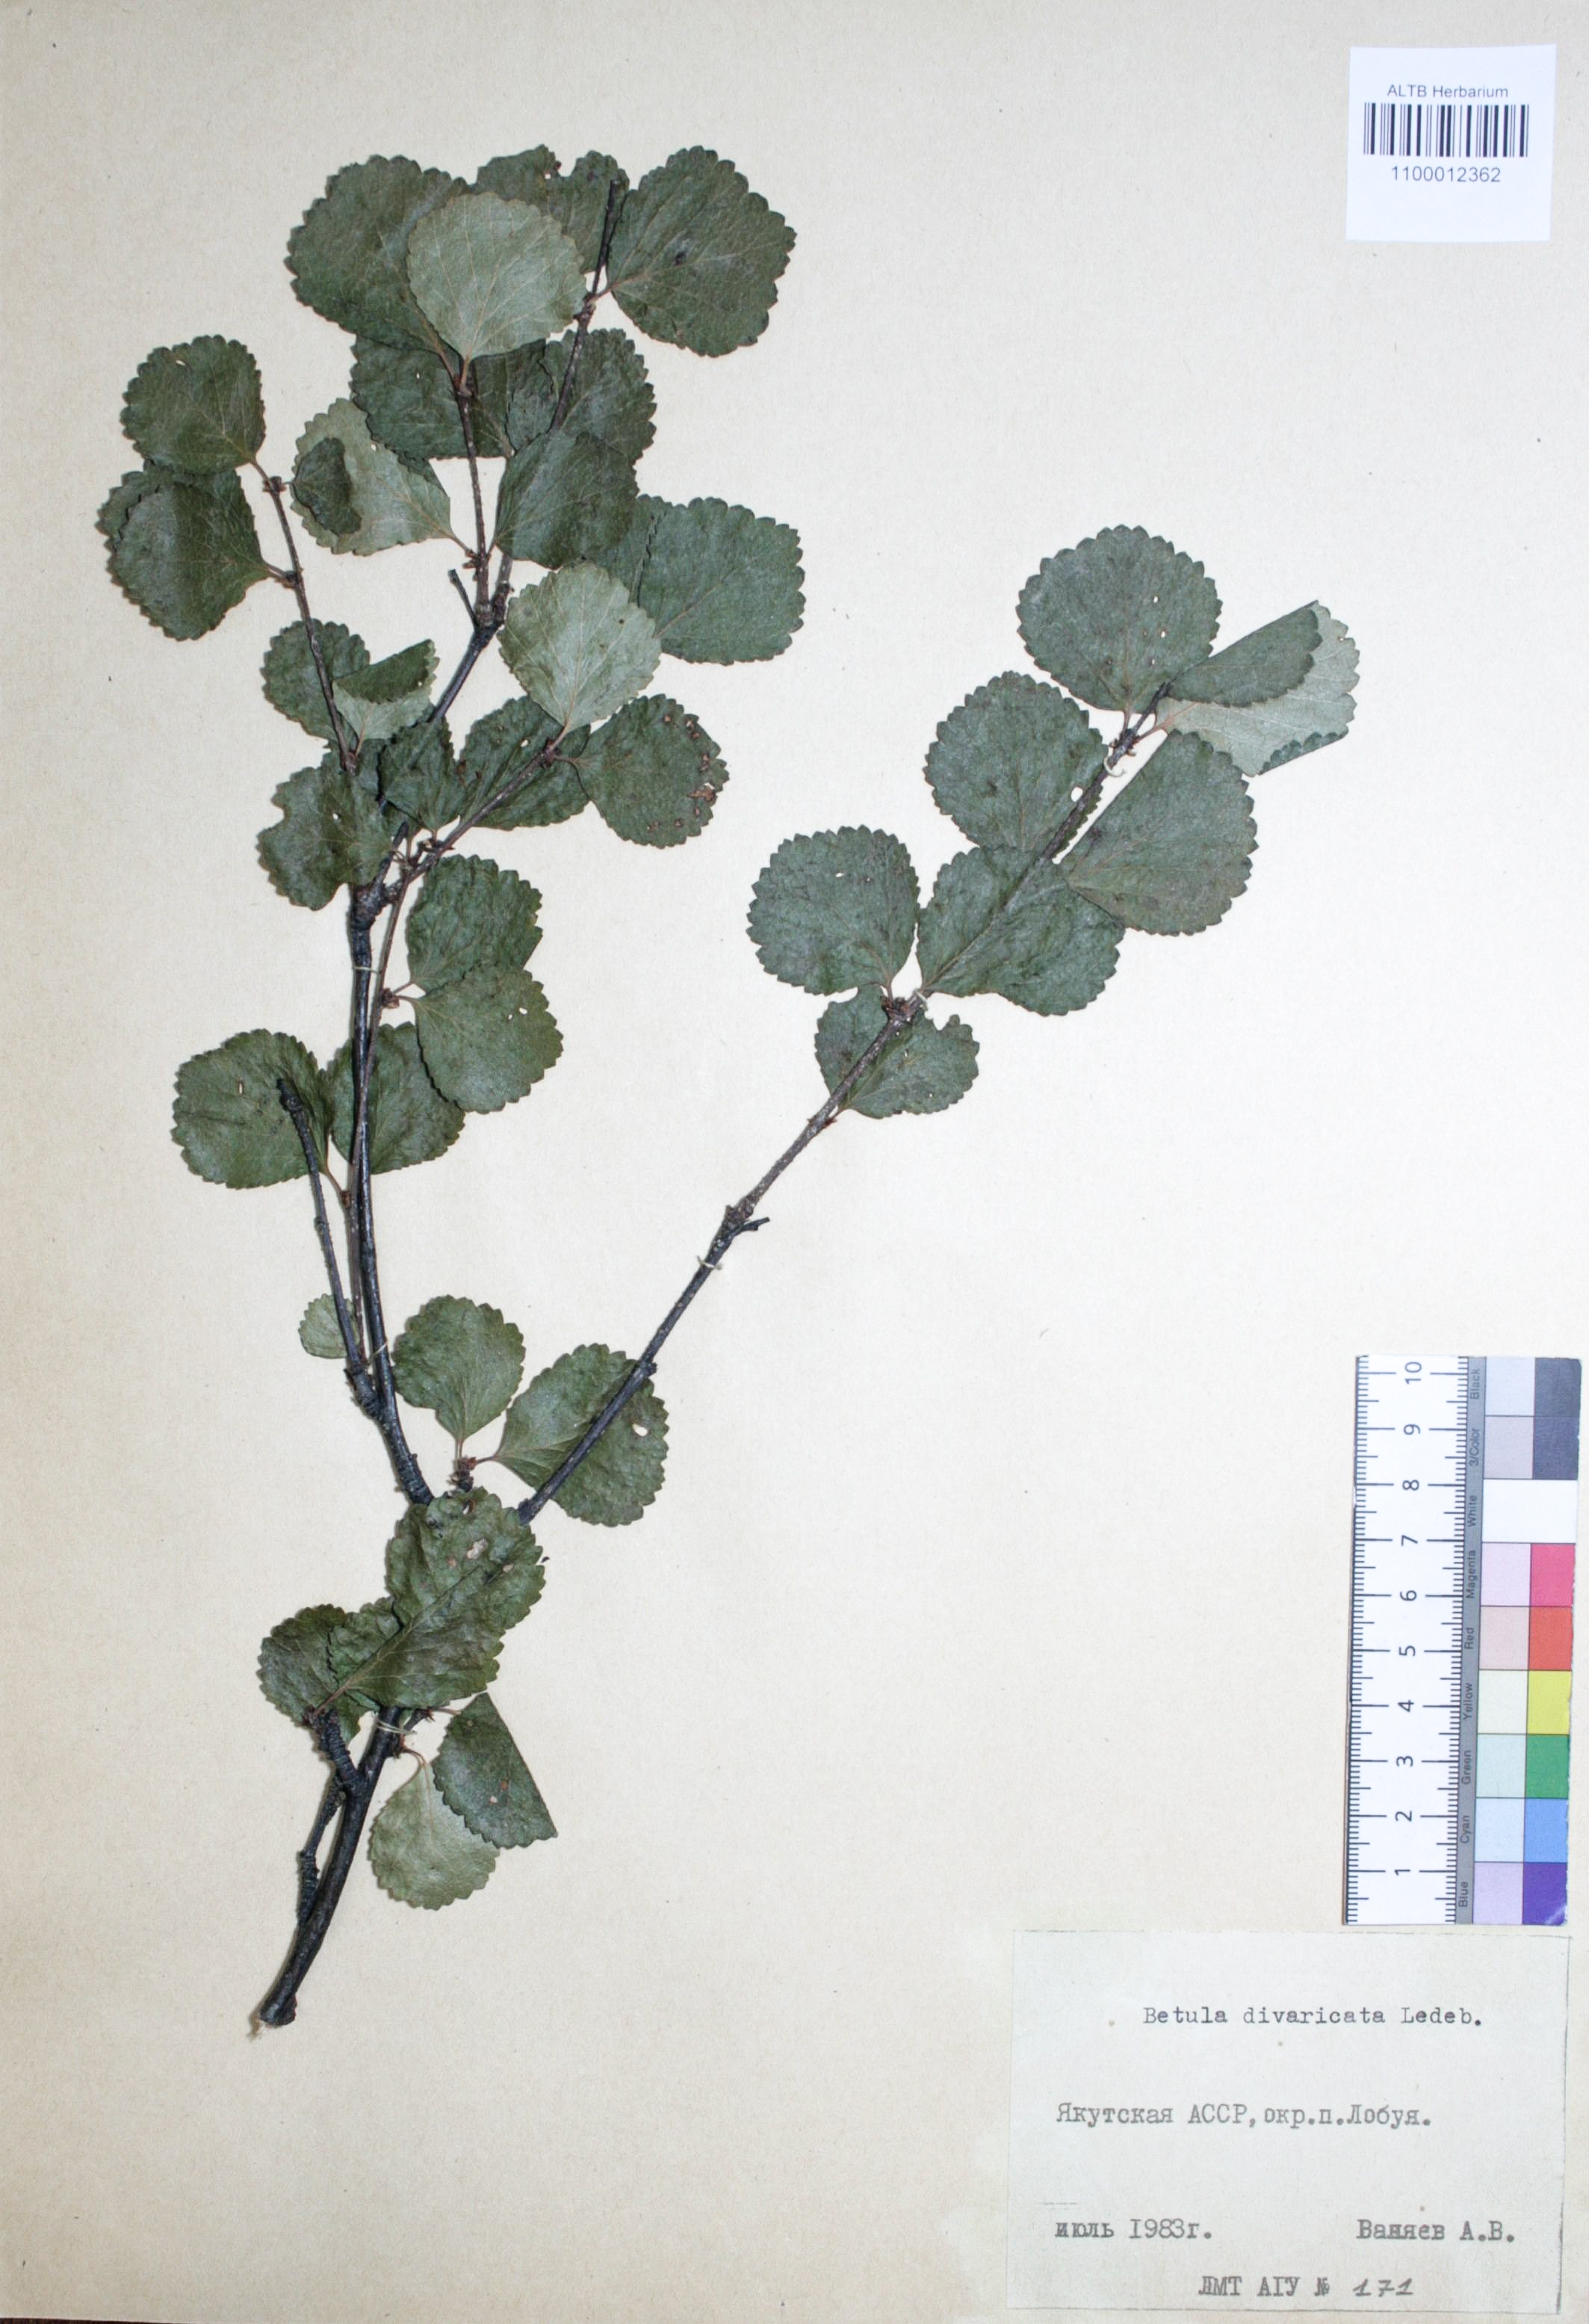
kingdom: Plantae
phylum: Tracheophyta
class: Magnoliopsida
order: Fagales
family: Betulaceae
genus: Betula
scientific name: Betula fruticosa
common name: Japanese bog birch
